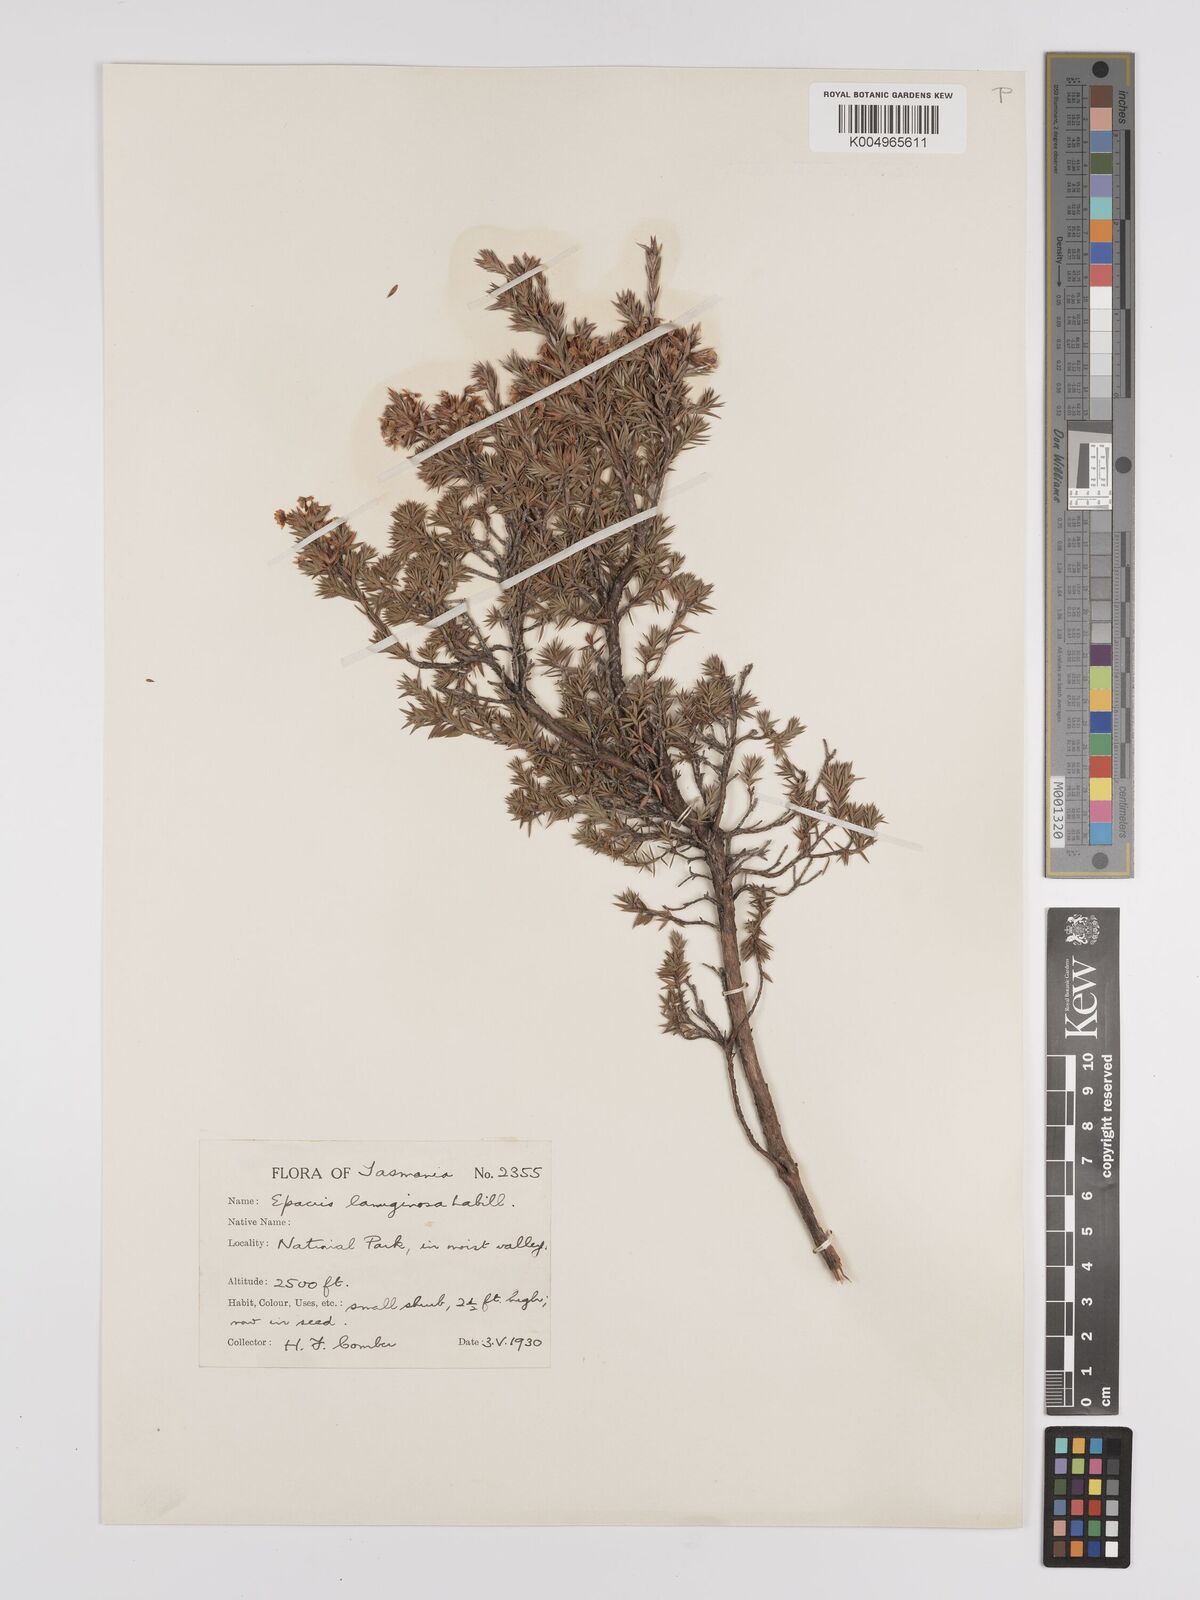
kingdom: Plantae
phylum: Tracheophyta
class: Magnoliopsida
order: Ericales
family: Ericaceae
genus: Epacris
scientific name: Epacris lanuginosa
